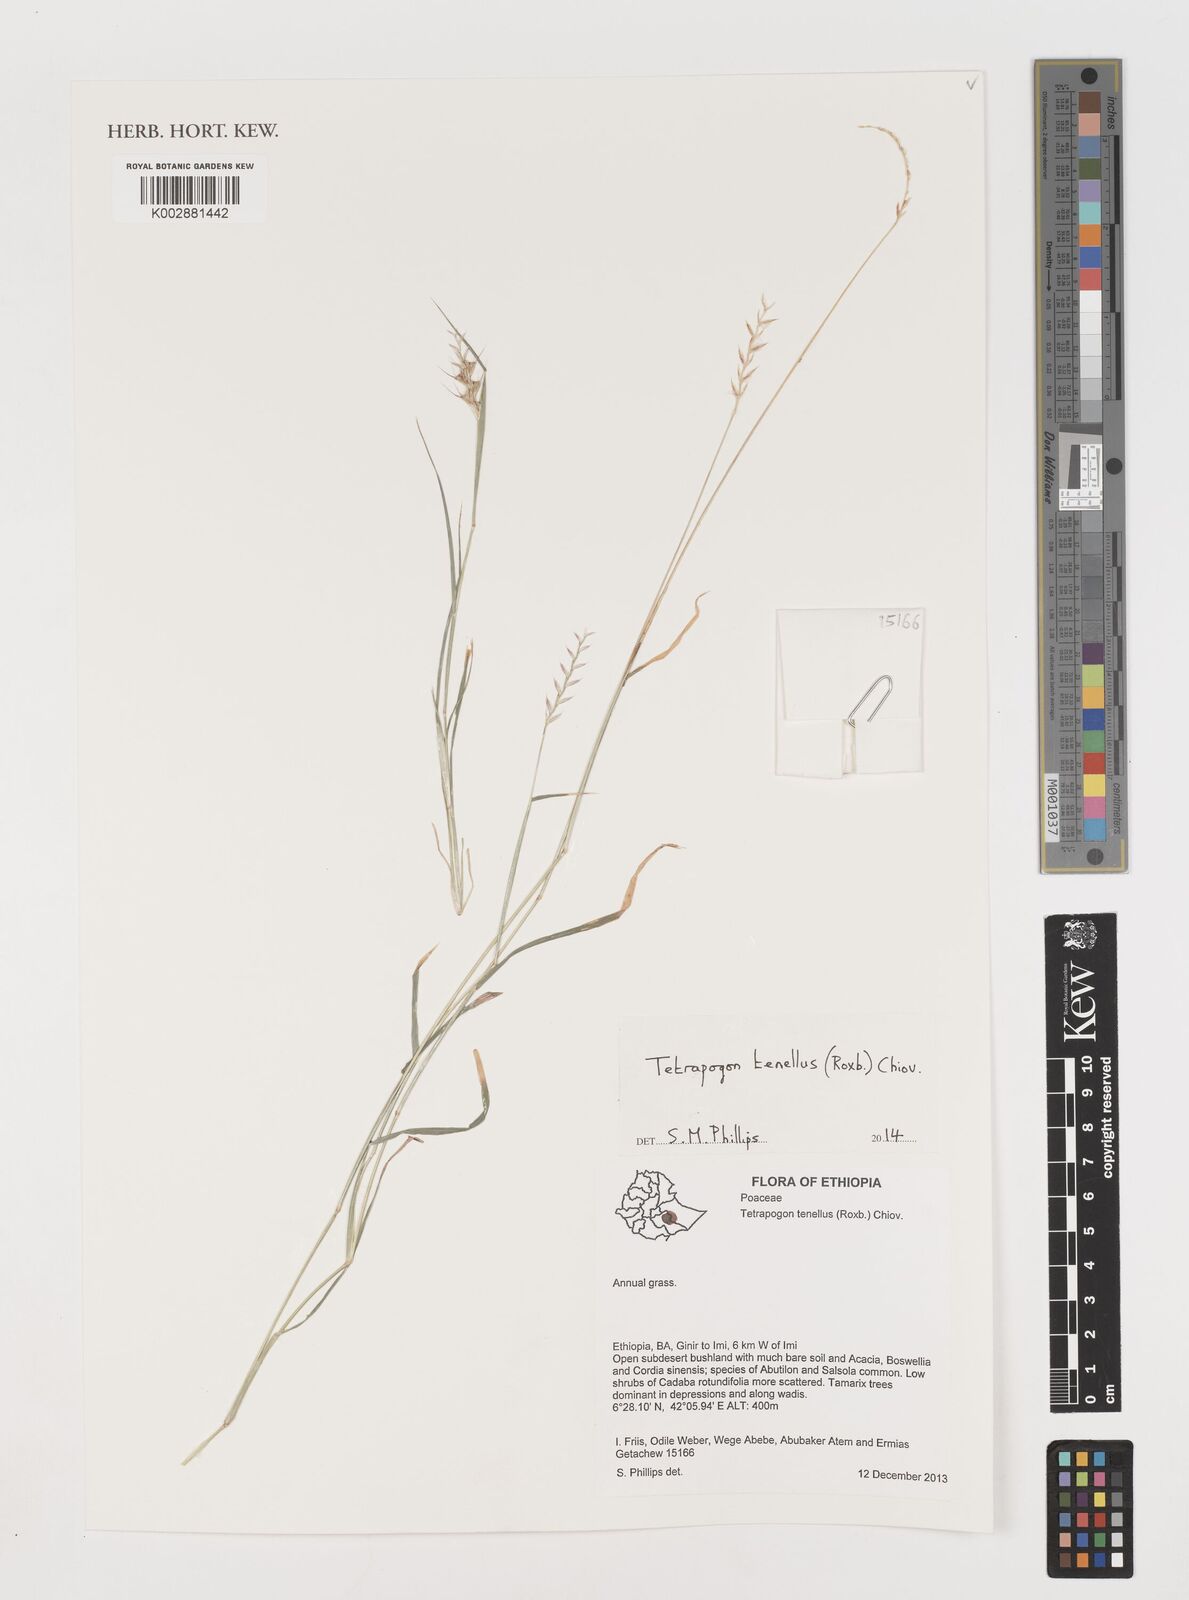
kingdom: Plantae
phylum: Tracheophyta
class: Liliopsida
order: Poales
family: Poaceae
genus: Tetrapogon
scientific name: Tetrapogon tenellus
